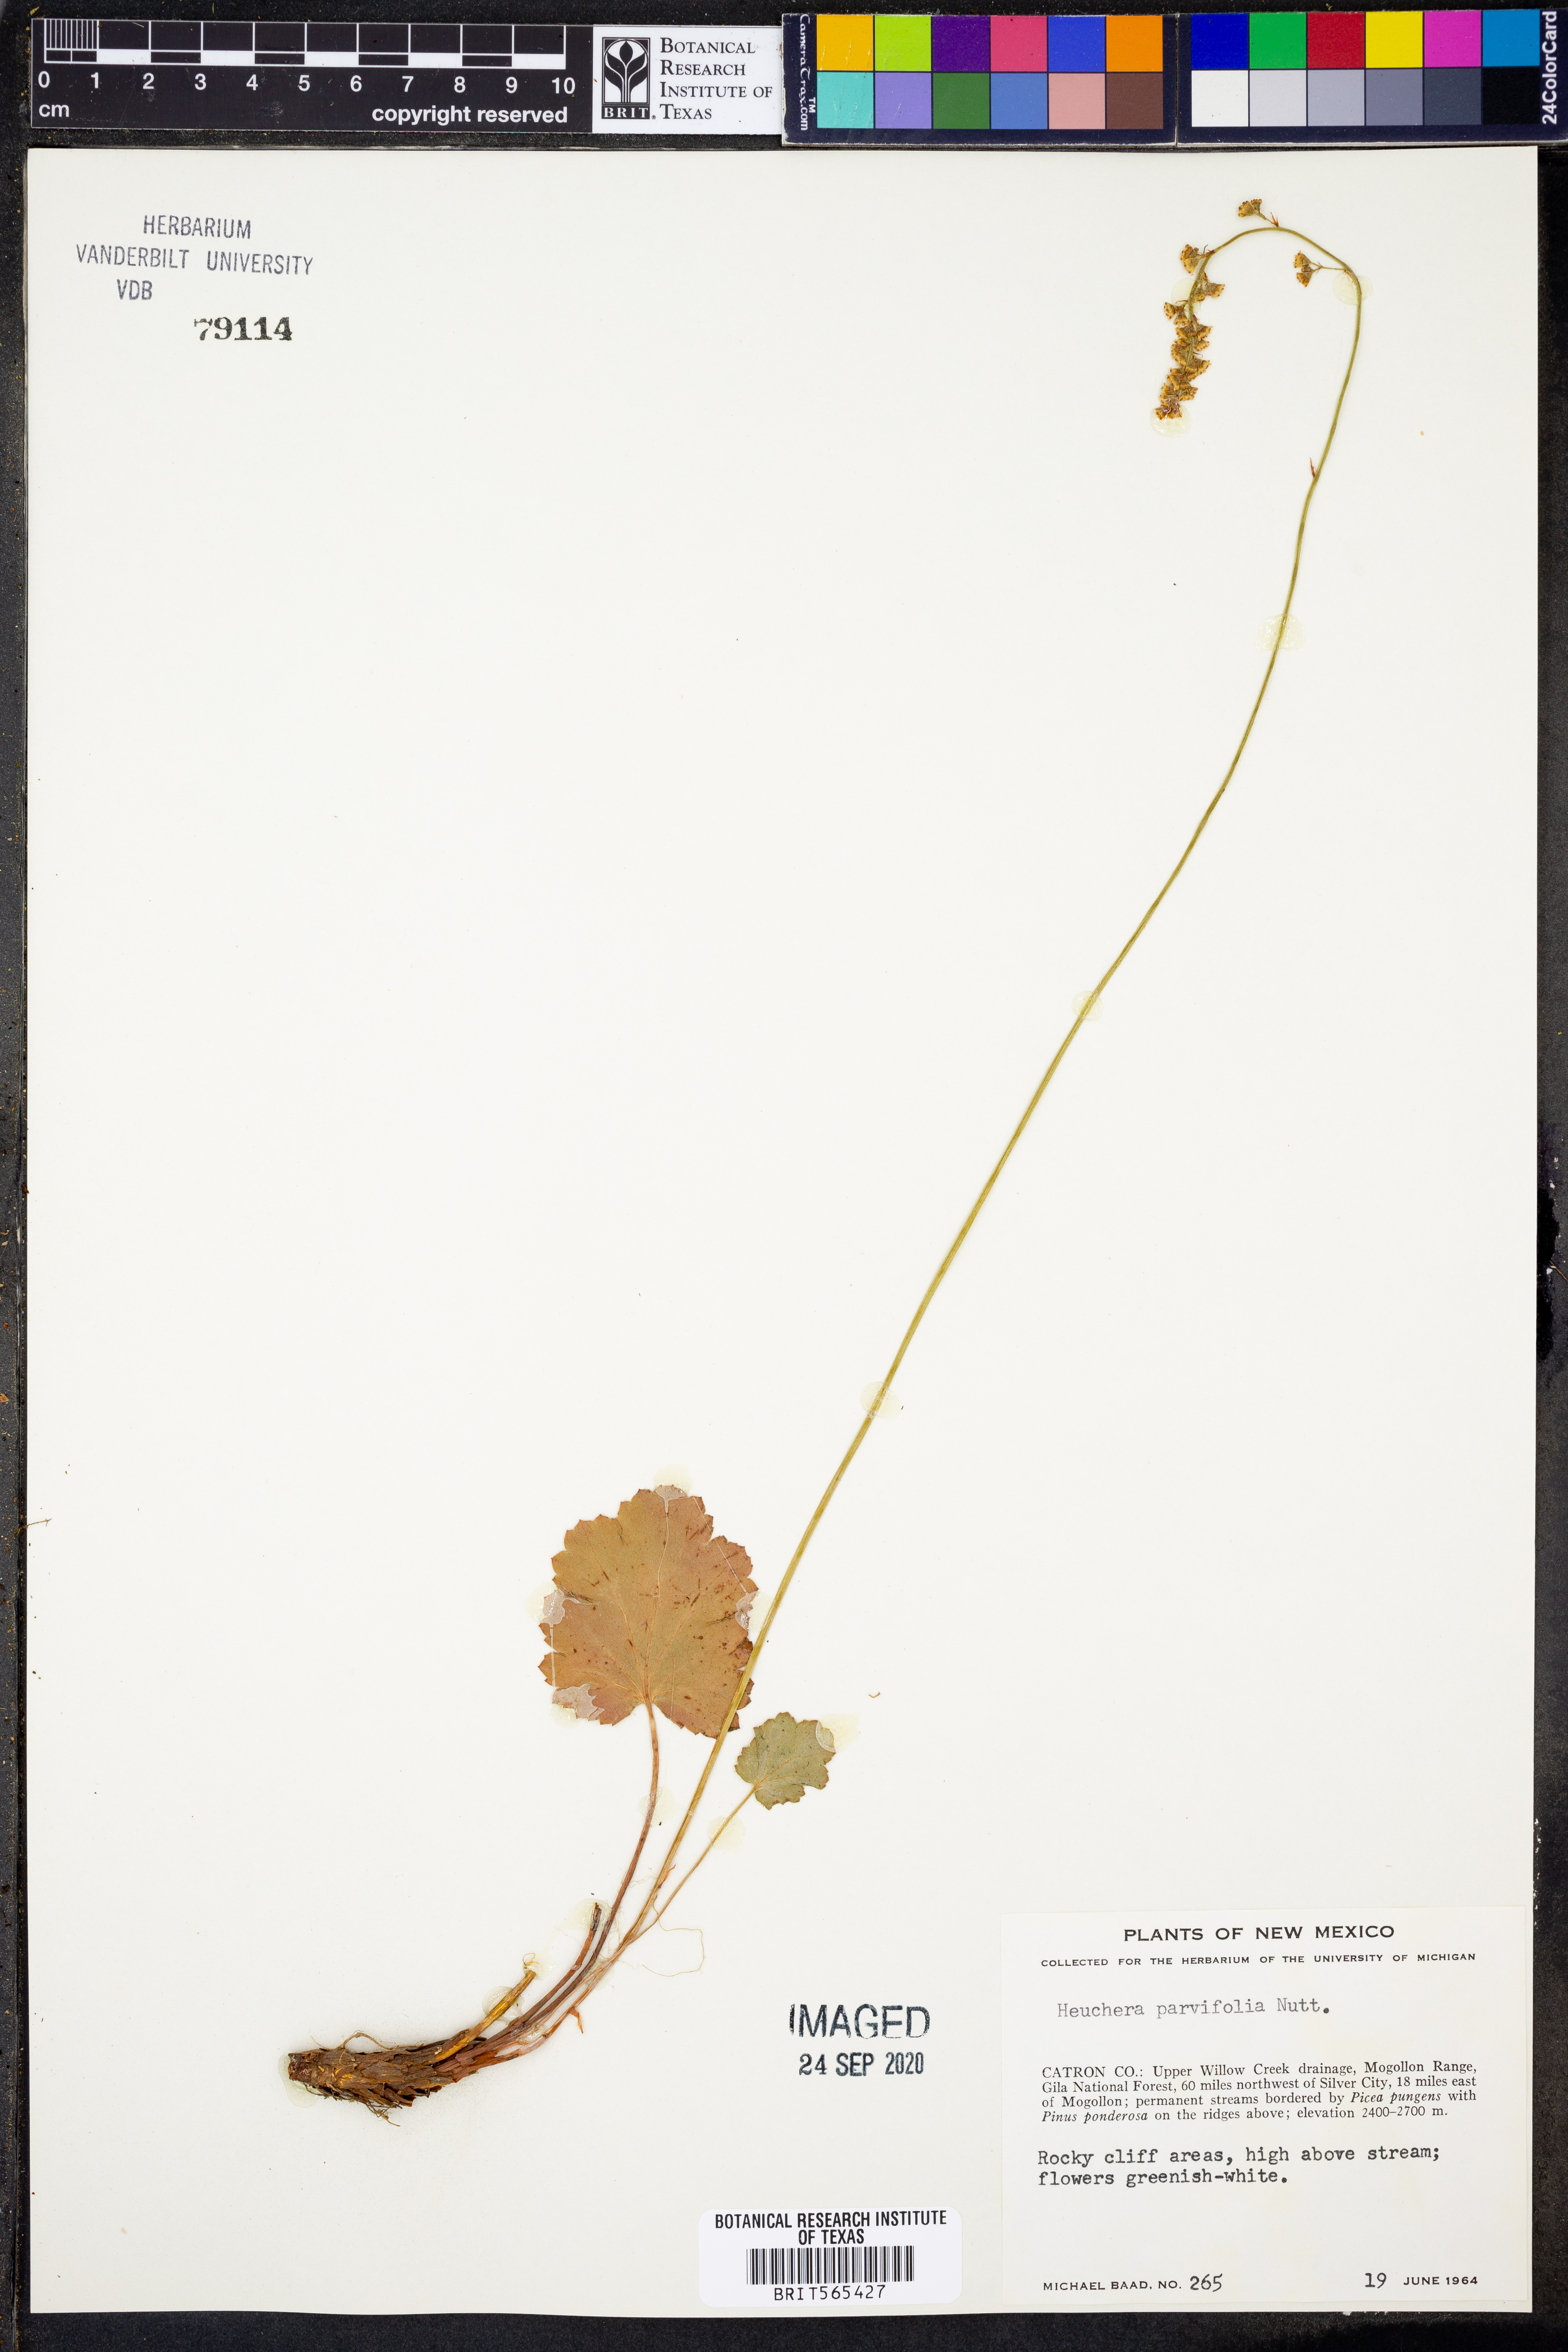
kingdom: Plantae
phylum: Tracheophyta
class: Magnoliopsida
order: Saxifragales
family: Saxifragaceae
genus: Heuchera
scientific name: Heuchera parvifolia
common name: Common alumroot
